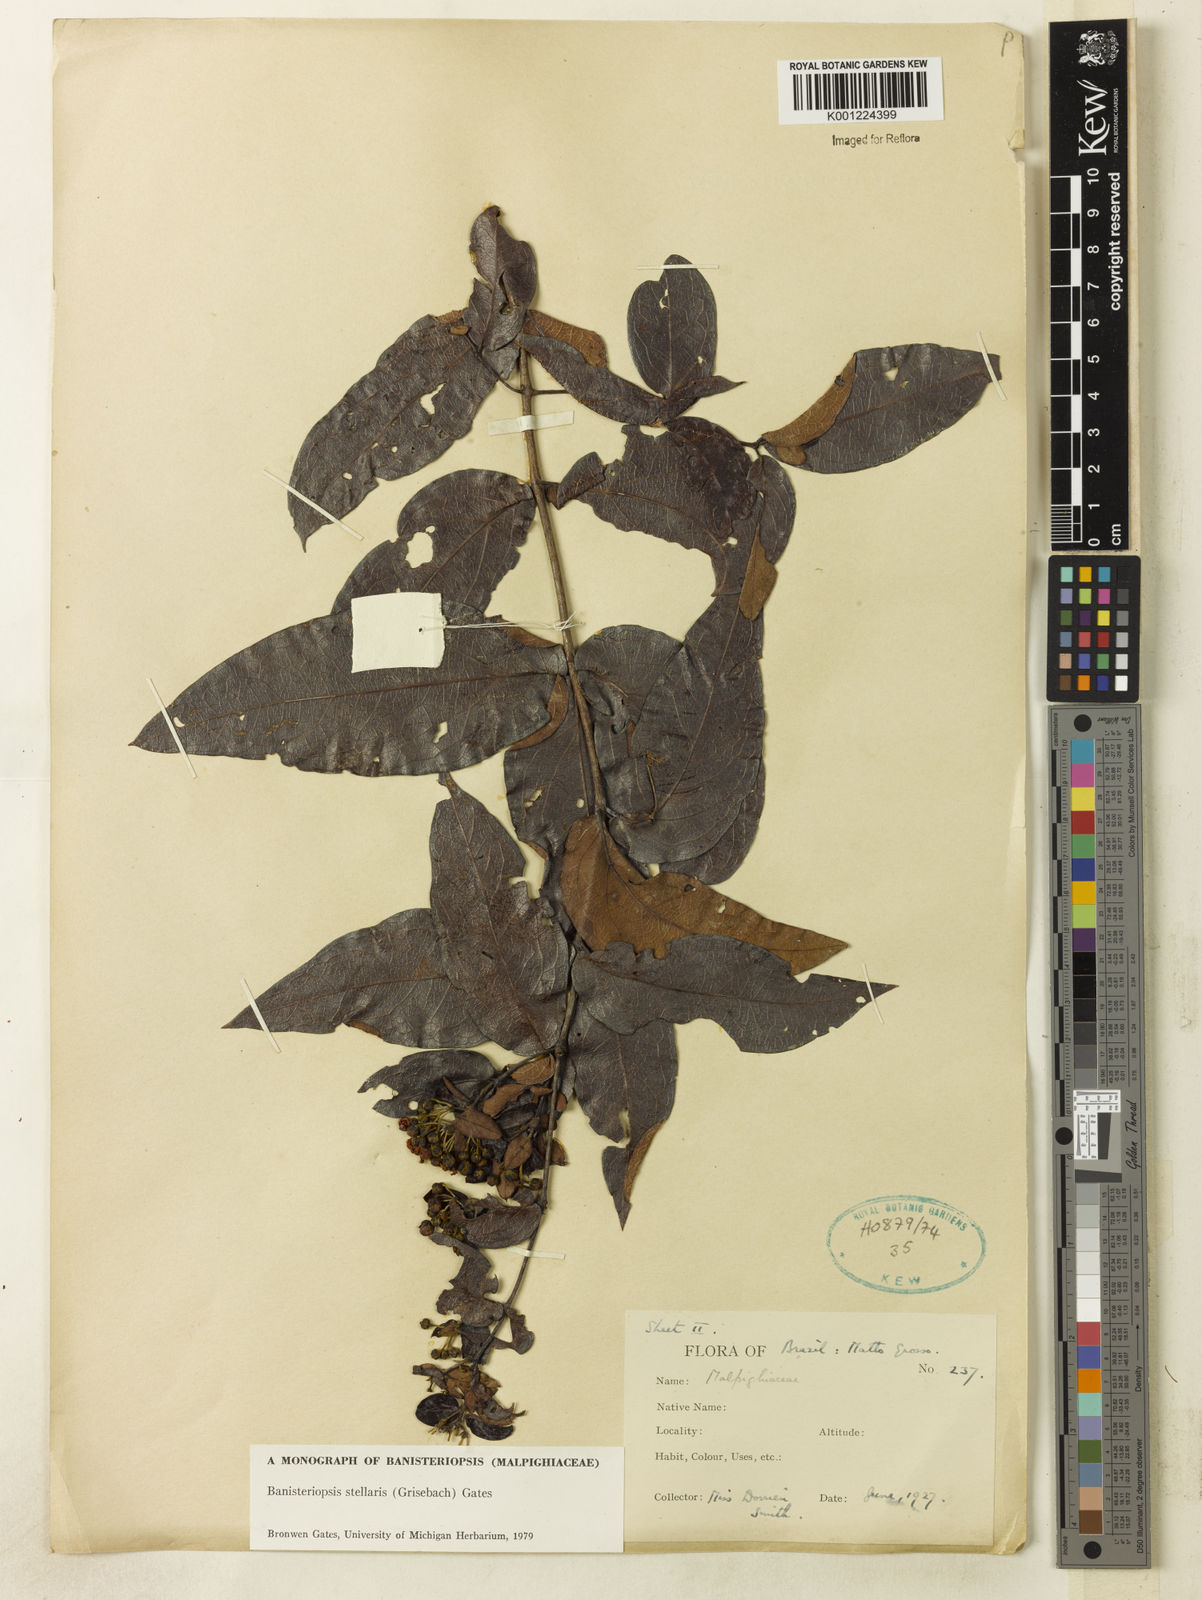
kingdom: Plantae
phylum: Tracheophyta
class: Magnoliopsida
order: Malpighiales
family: Malpighiaceae
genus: Banisteriopsis
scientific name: Banisteriopsis stellaris
